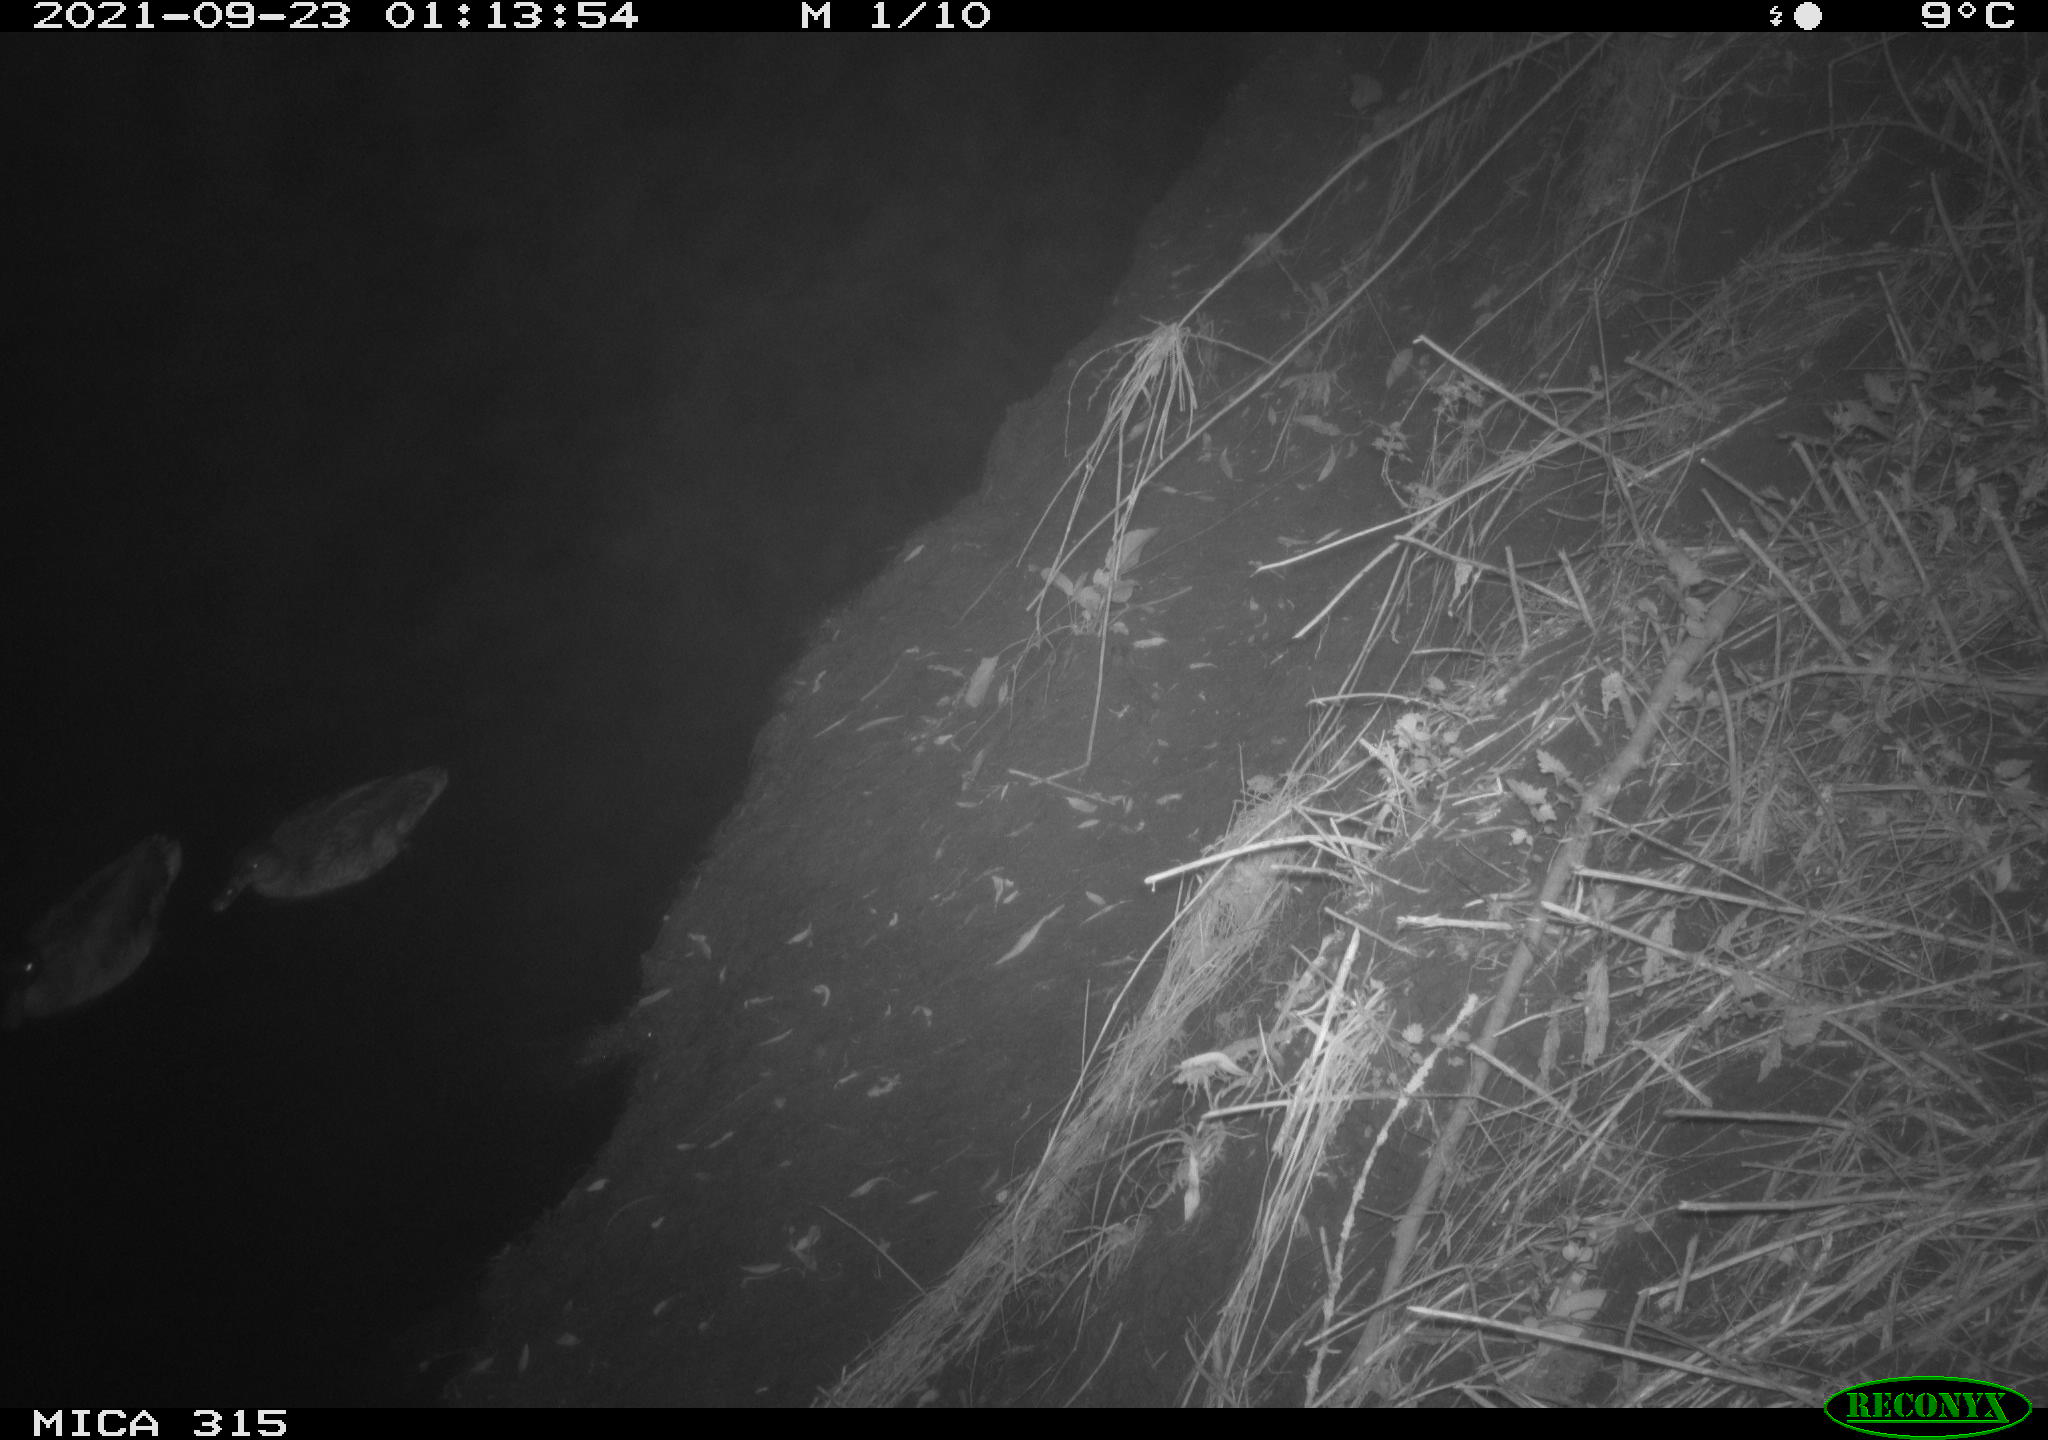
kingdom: Animalia
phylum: Chordata
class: Aves
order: Anseriformes
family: Anatidae
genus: Anas
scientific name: Anas platyrhynchos
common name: Mallard
